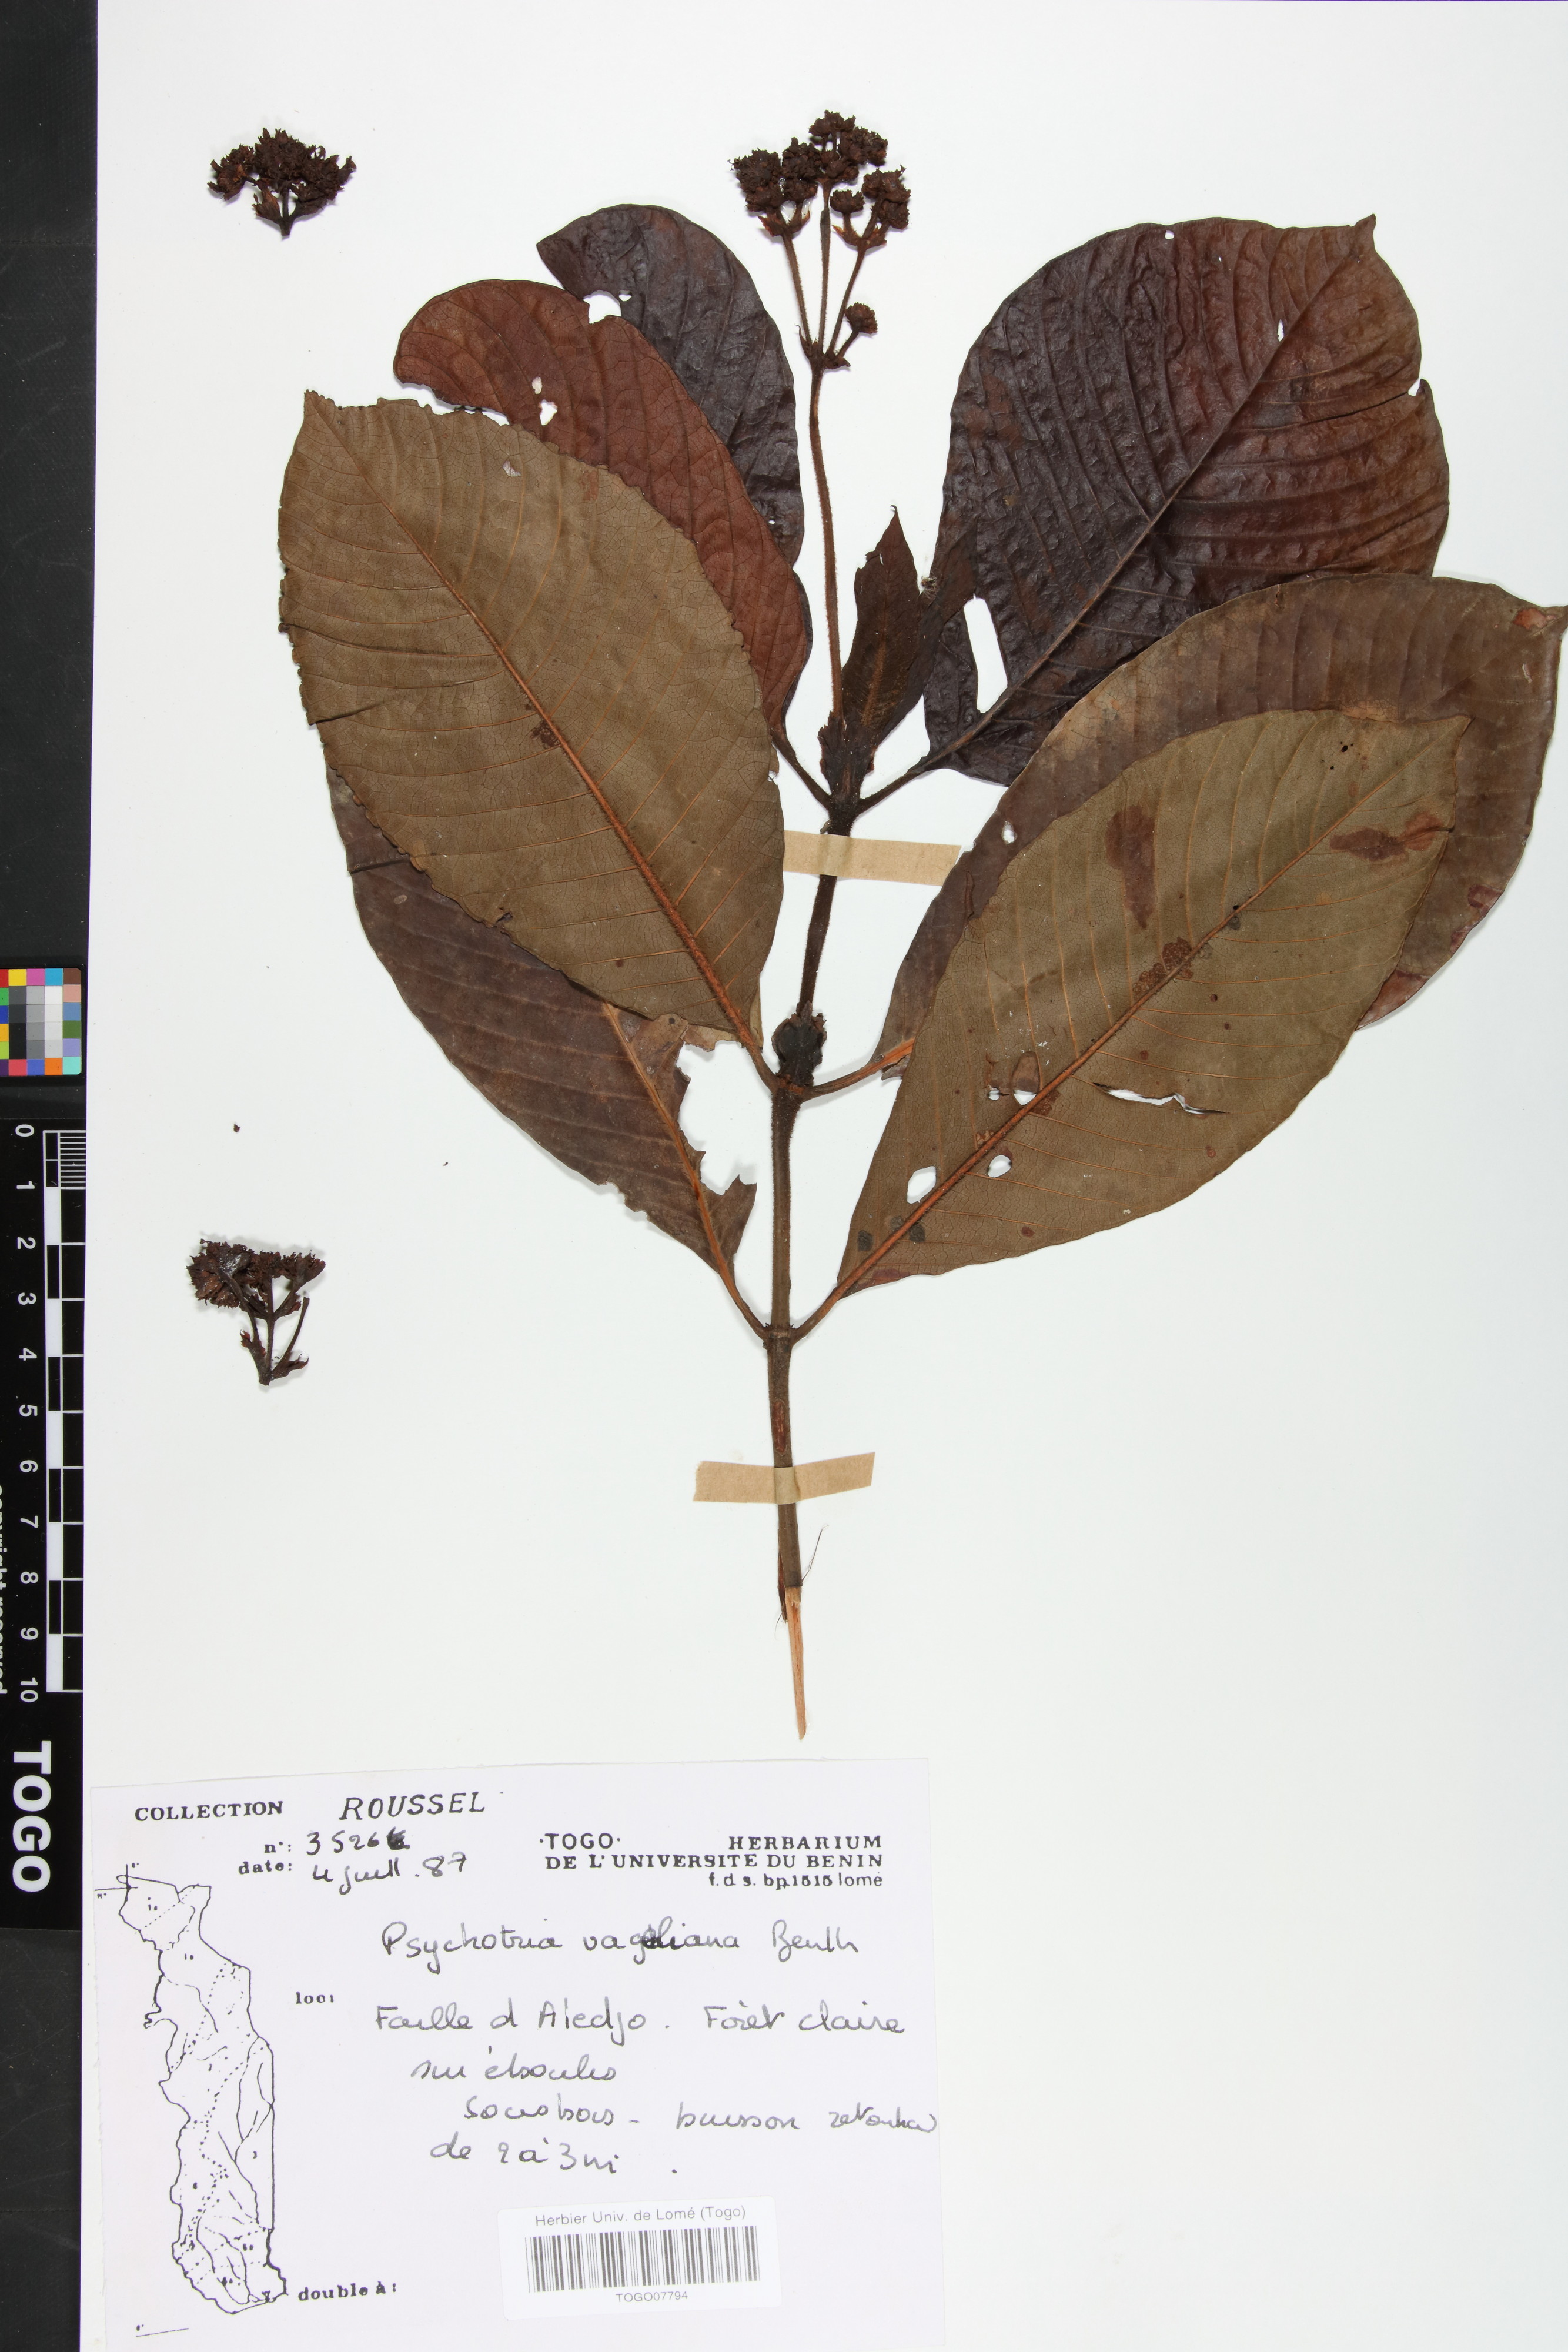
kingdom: Plantae
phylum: Tracheophyta
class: Magnoliopsida
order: Gentianales
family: Rubiaceae
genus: Psychotria
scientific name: Psychotria vogeliana
